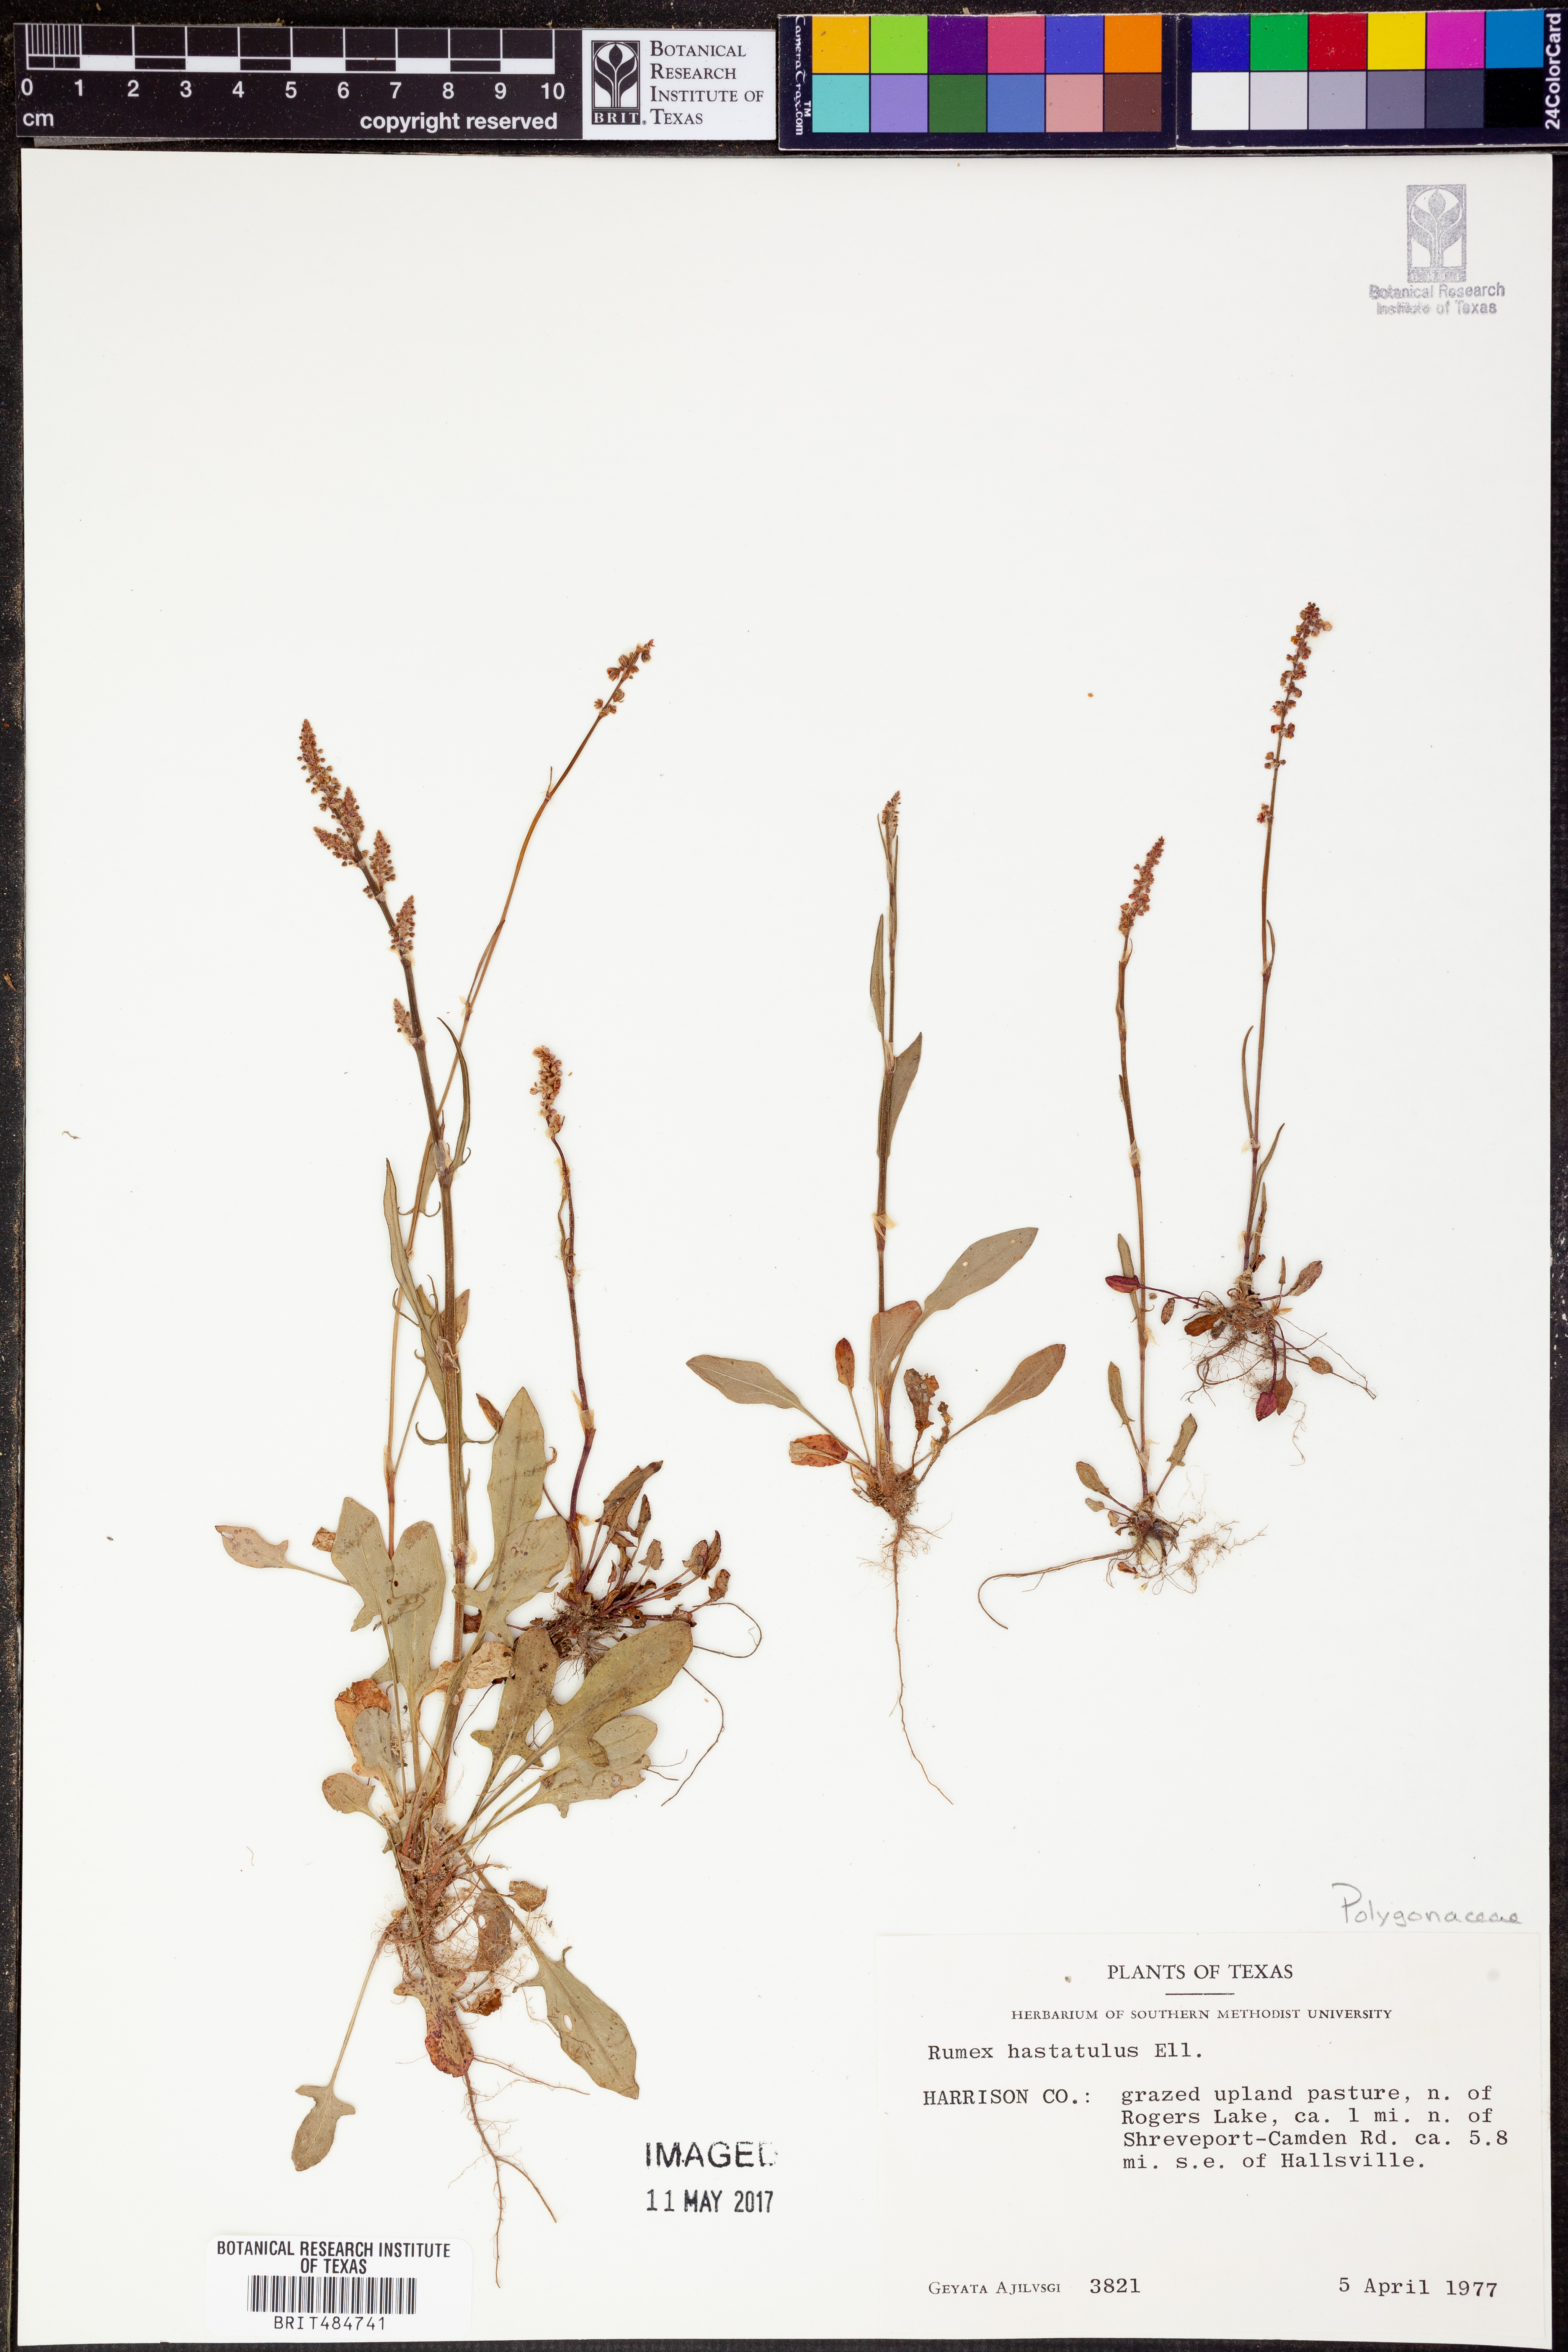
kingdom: Plantae
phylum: Tracheophyta
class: Magnoliopsida
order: Caryophyllales
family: Polygonaceae
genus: Rumex
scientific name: Rumex hastatulus
